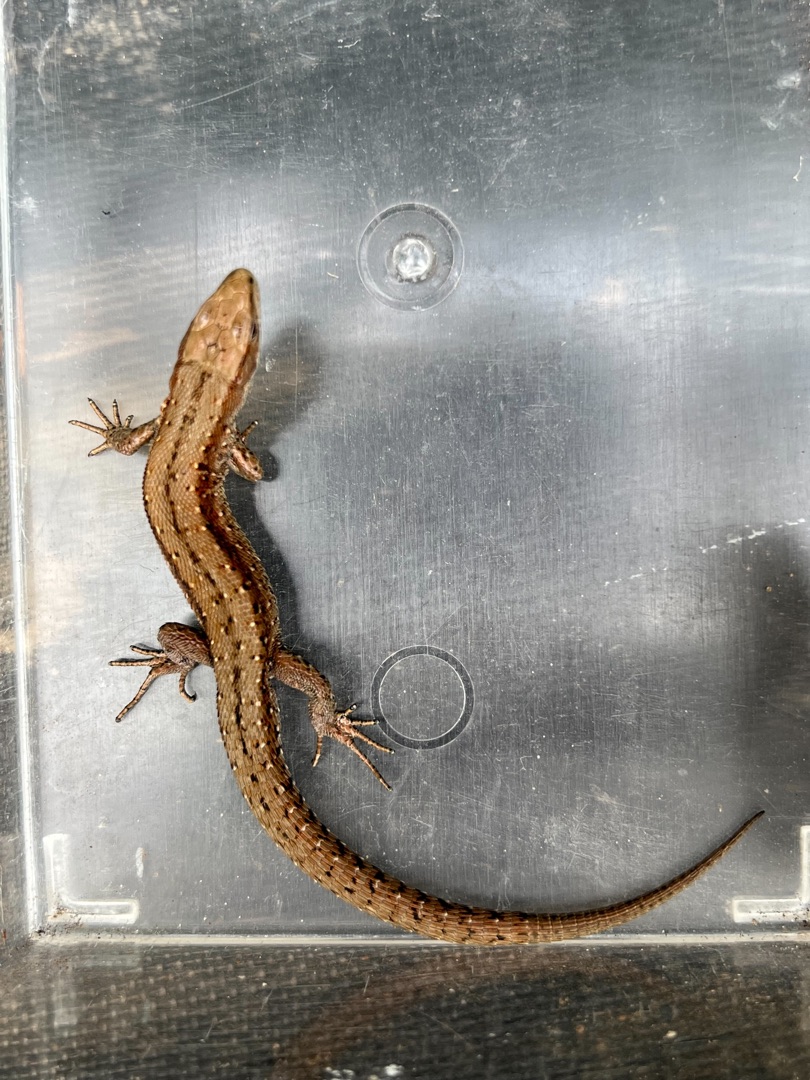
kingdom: Animalia
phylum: Chordata
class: Squamata
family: Lacertidae
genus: Zootoca
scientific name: Zootoca vivipara
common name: Skovfirben
